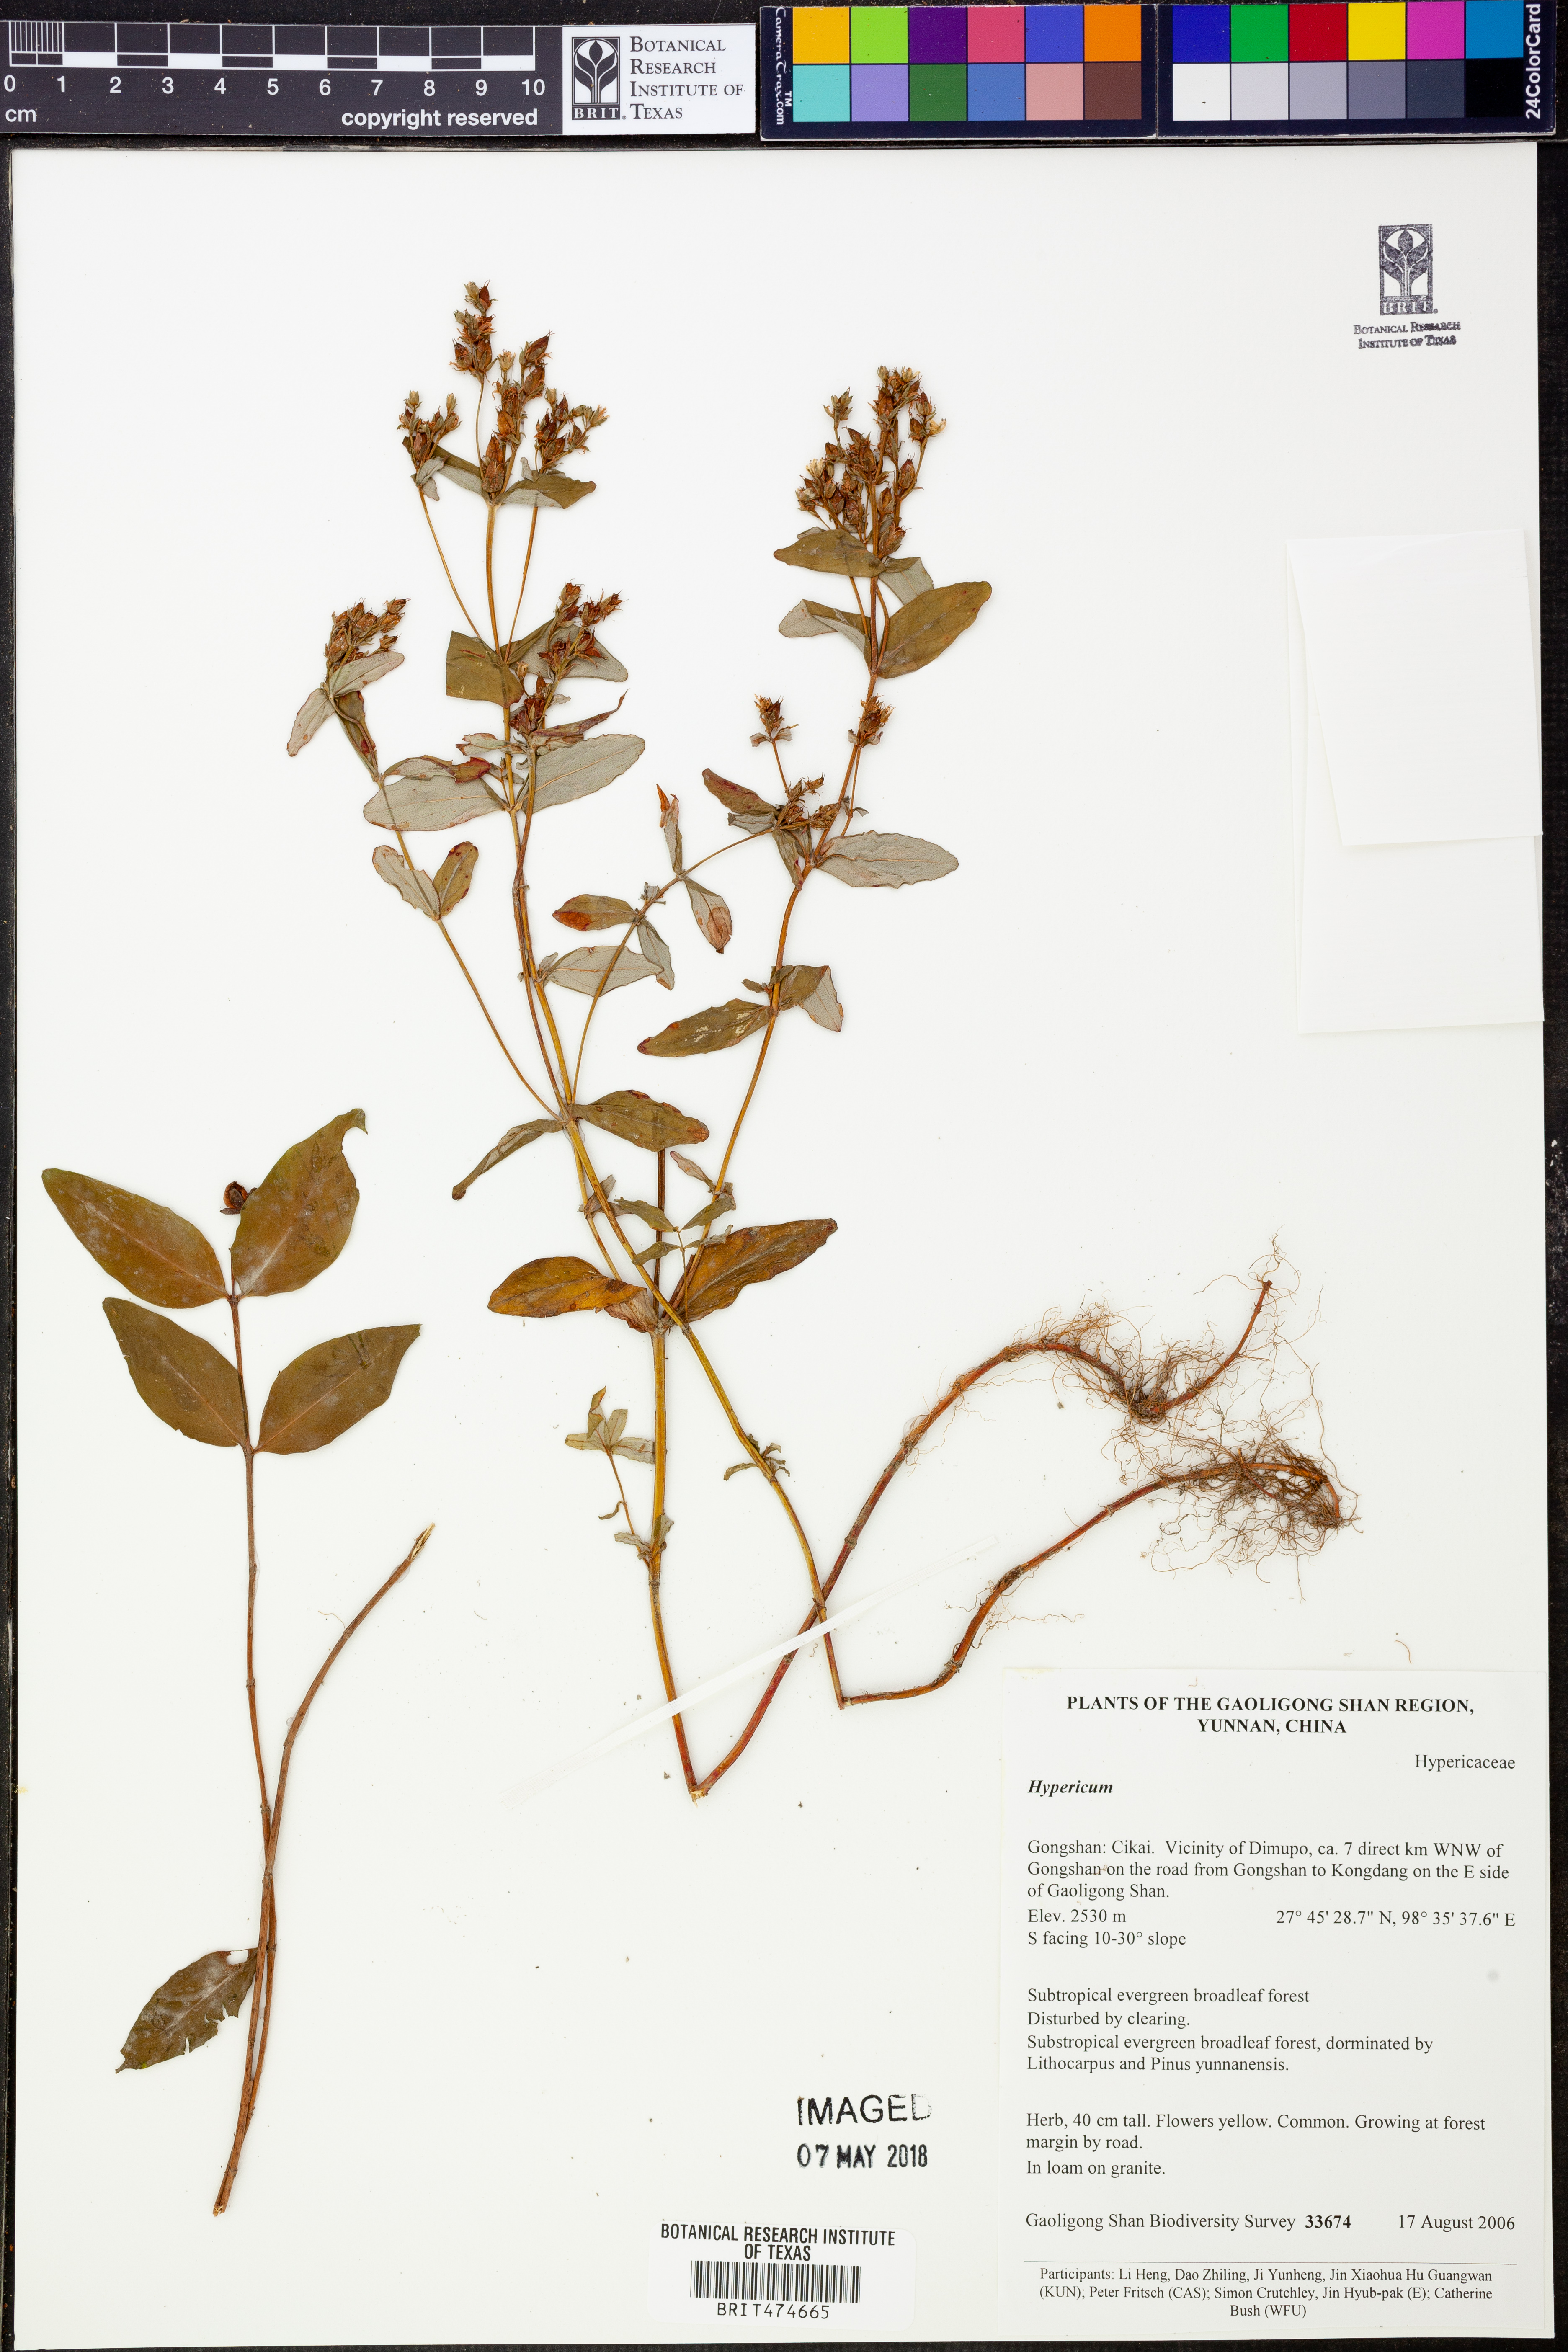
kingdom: Plantae
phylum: Tracheophyta
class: Magnoliopsida
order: Malpighiales
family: Hypericaceae
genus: Hypericum
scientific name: Hypericum
